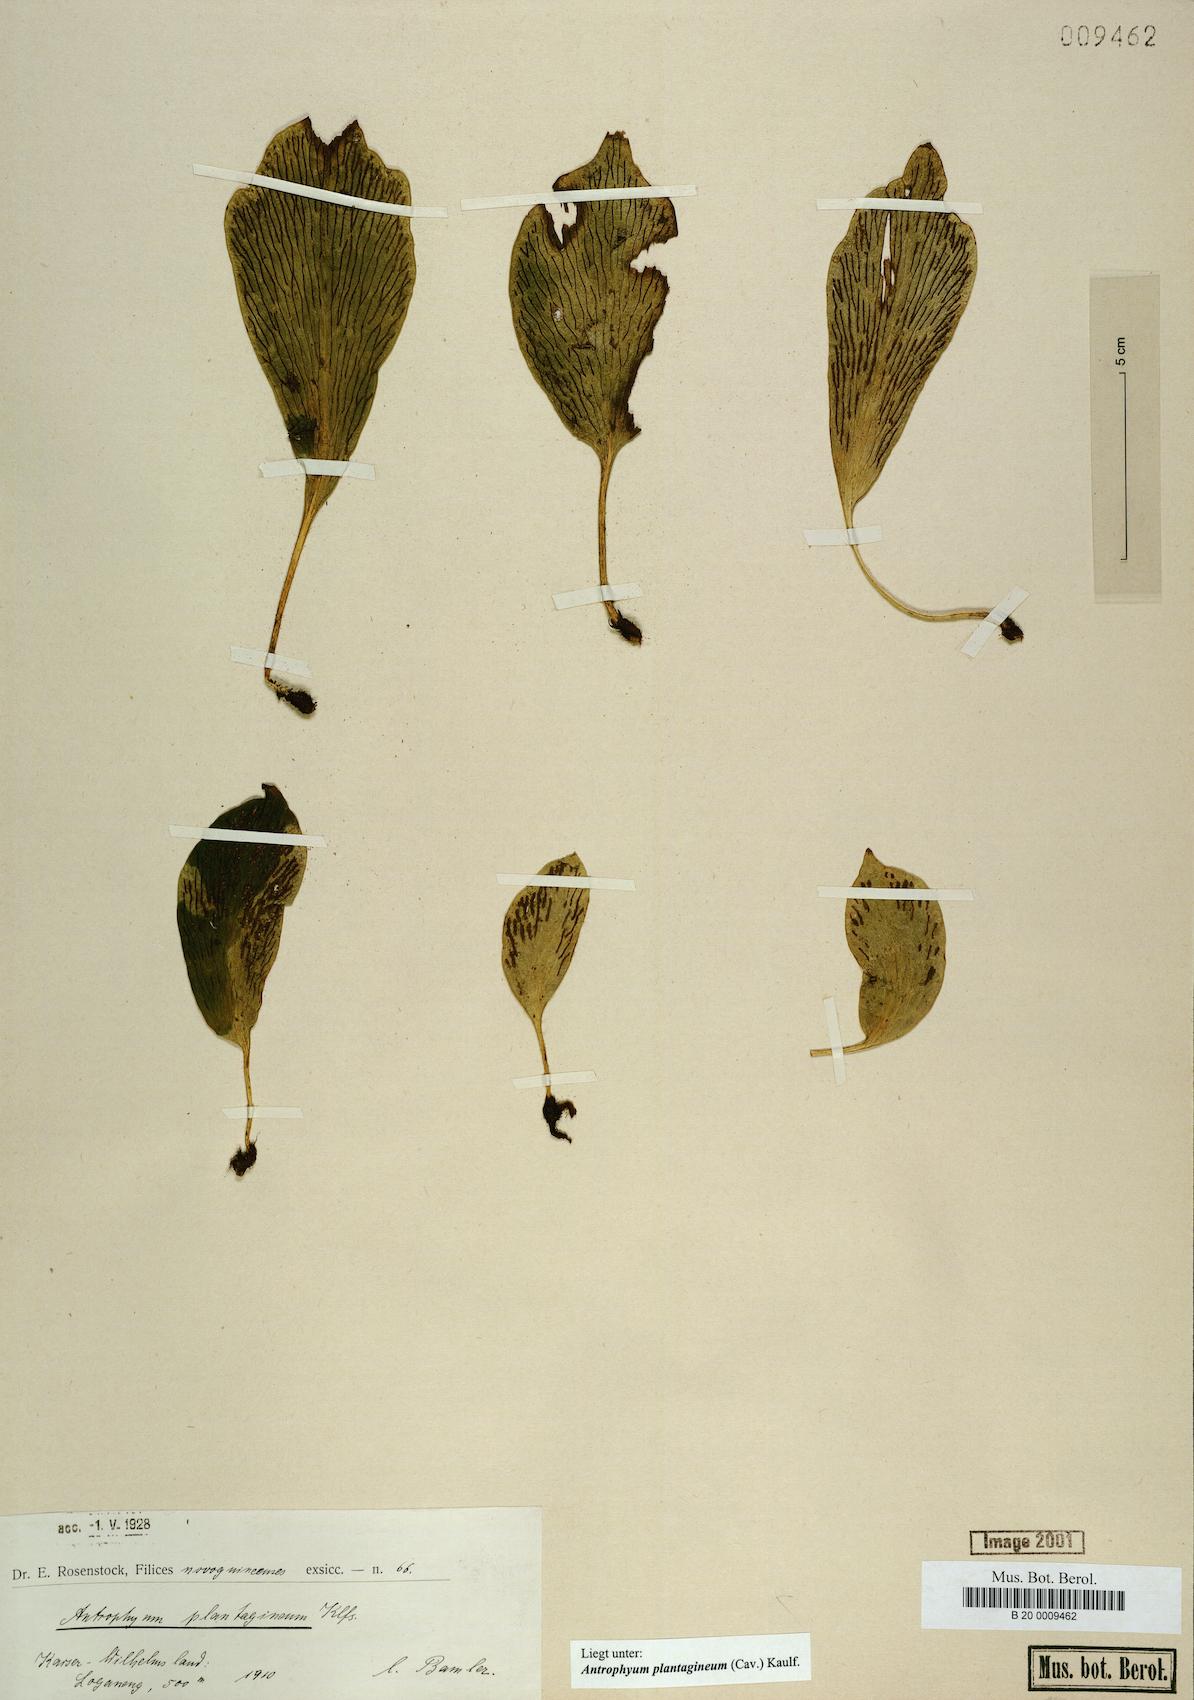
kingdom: Plantae
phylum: Tracheophyta
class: Polypodiopsida
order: Polypodiales
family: Pteridaceae
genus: Antrophyum
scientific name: Antrophyum plantagineum
